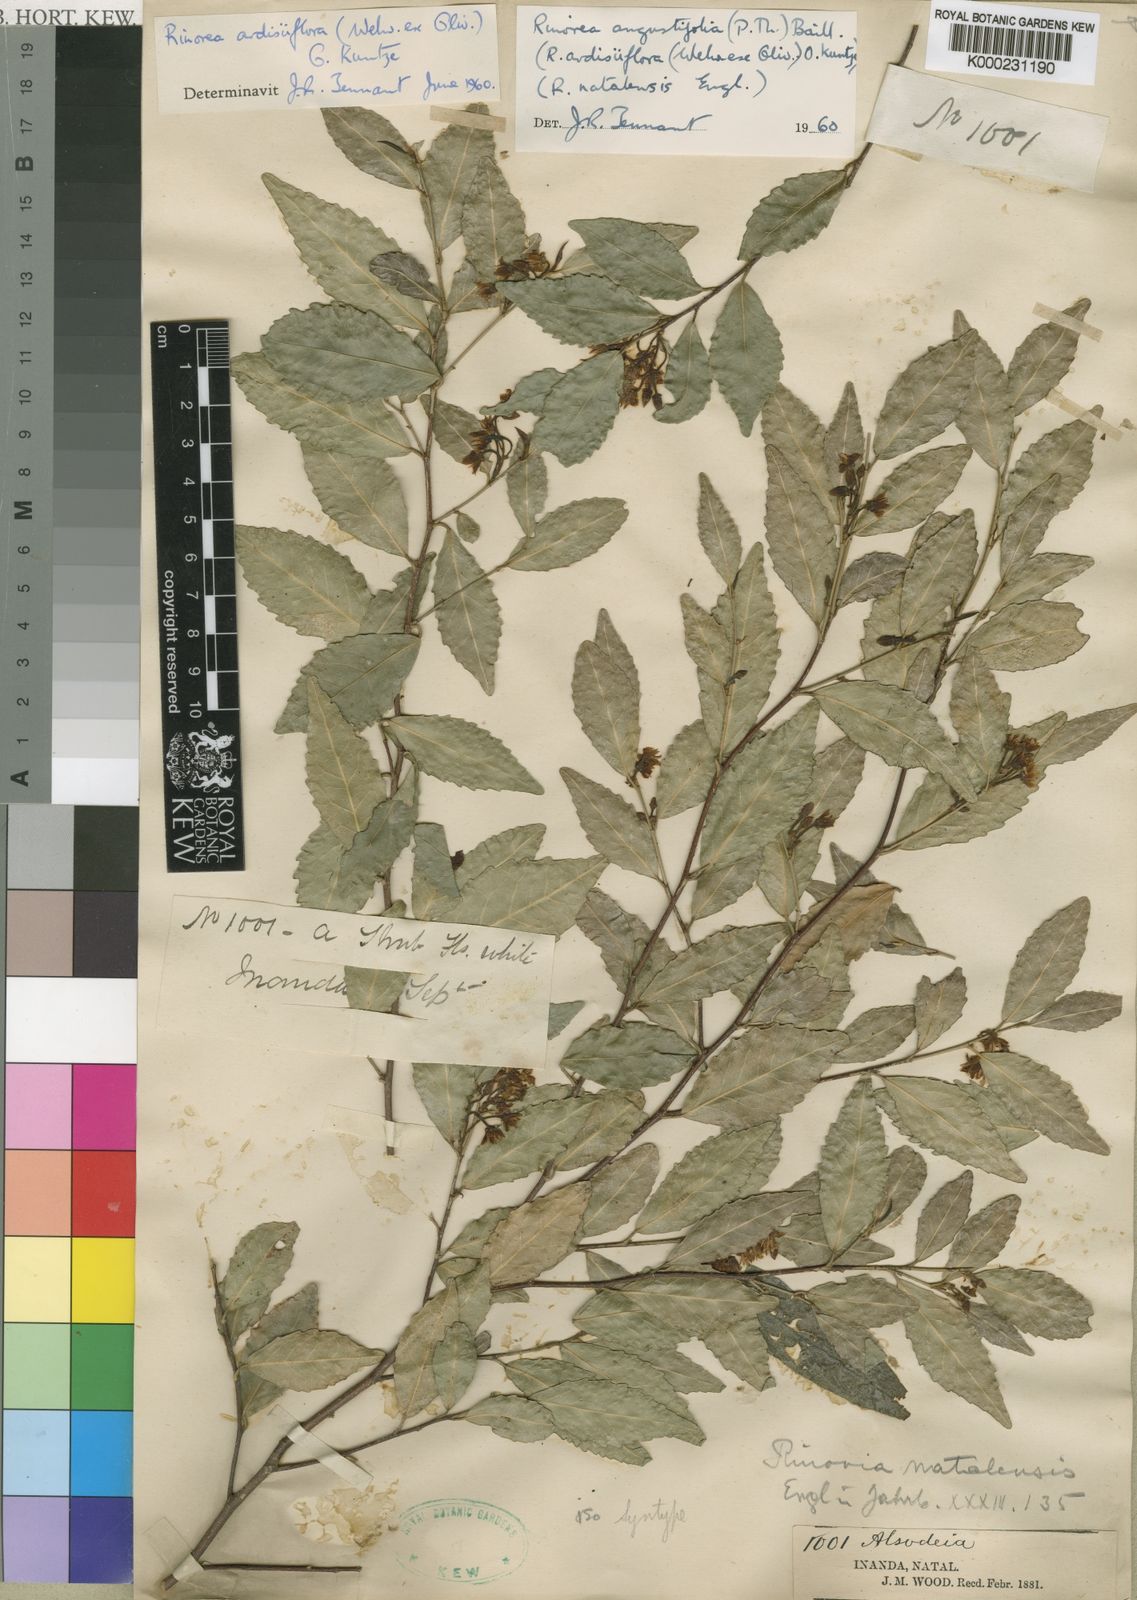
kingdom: Plantae
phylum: Tracheophyta
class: Magnoliopsida
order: Malpighiales
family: Violaceae
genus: Rinorea
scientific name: Rinorea angustifolia
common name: White violet-bush
